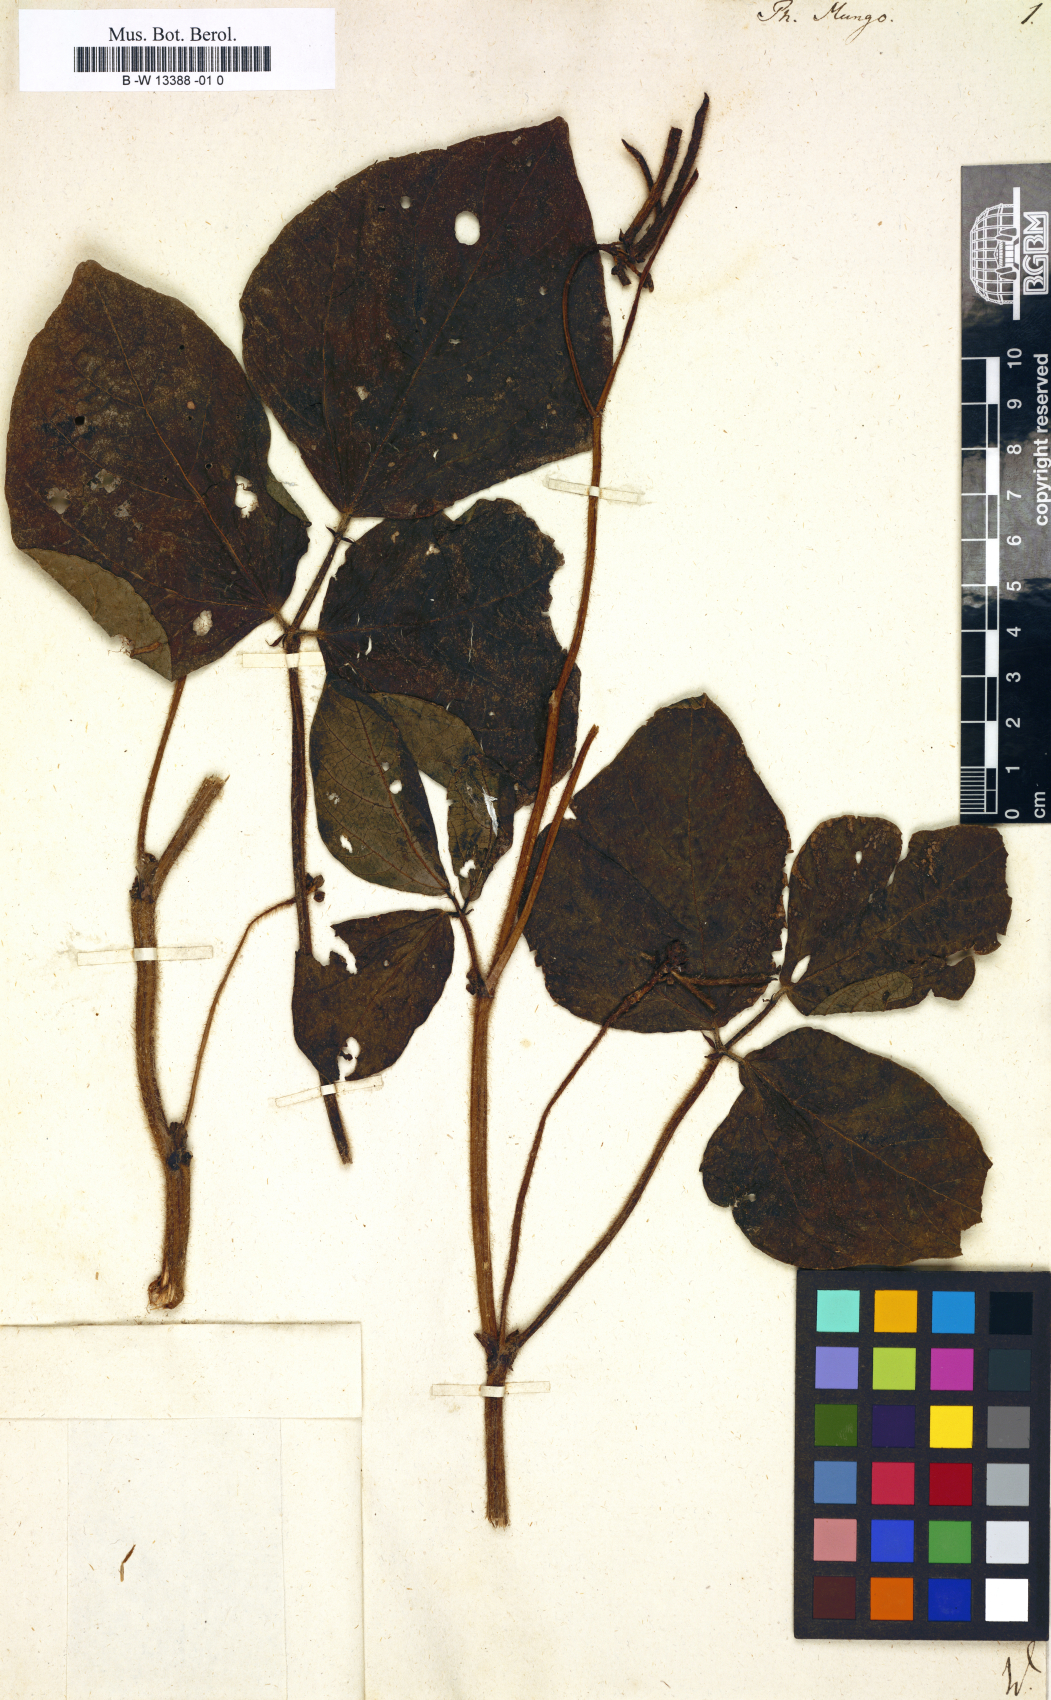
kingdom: Plantae
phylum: Tracheophyta
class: Magnoliopsida
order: Fabales
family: Fabaceae
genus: Phaseolus
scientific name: Phaseolus mungo
